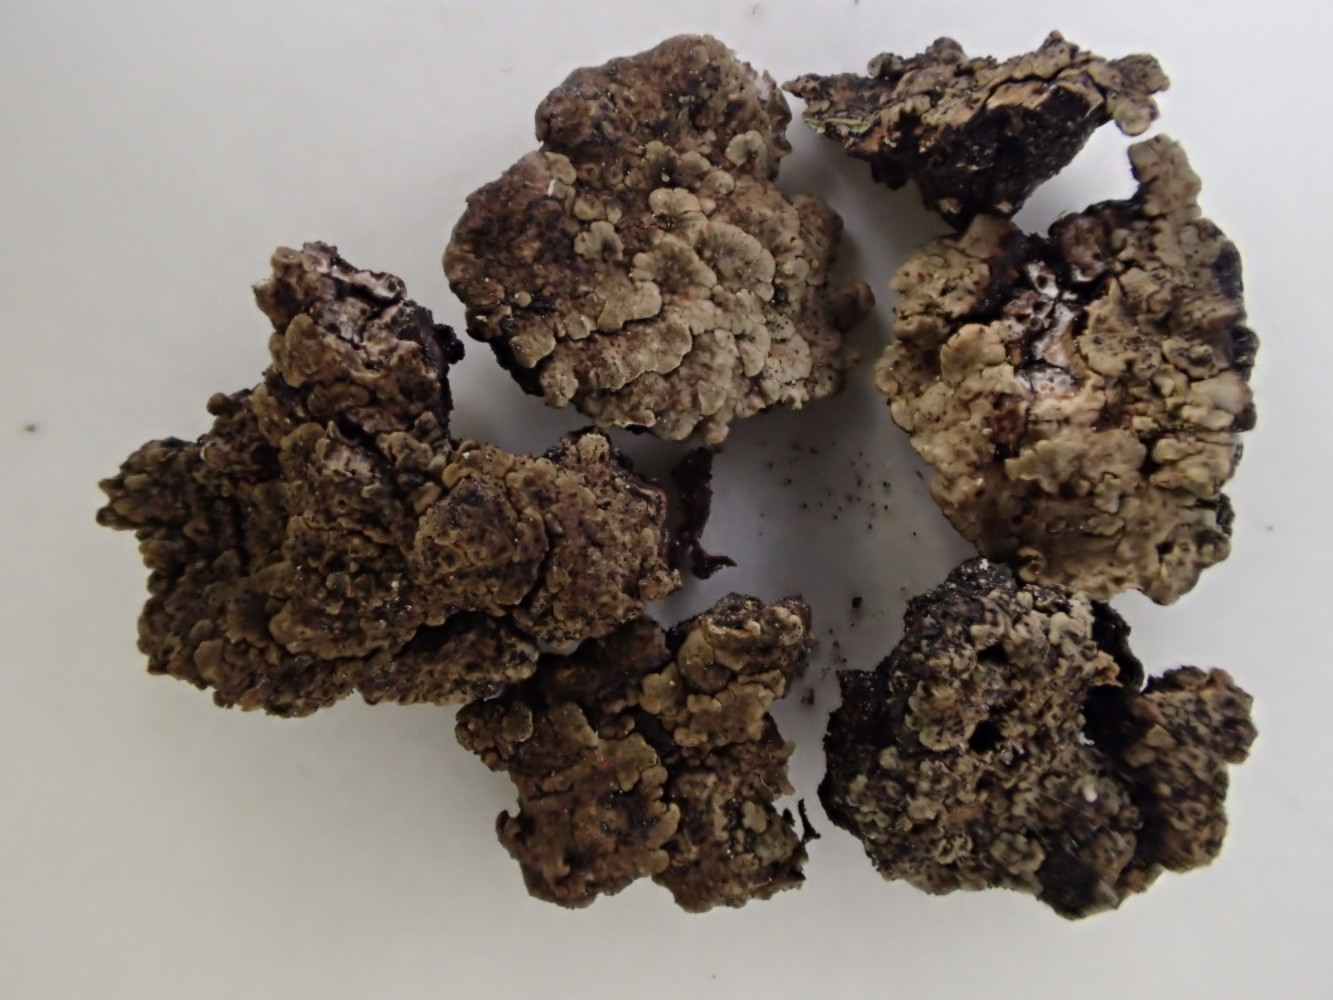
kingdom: Fungi
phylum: Ascomycota
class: Lecanoromycetes
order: Acarosporales
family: Acarosporaceae
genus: Acarospora
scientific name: Acarospora fuscata
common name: brun småsporelav
